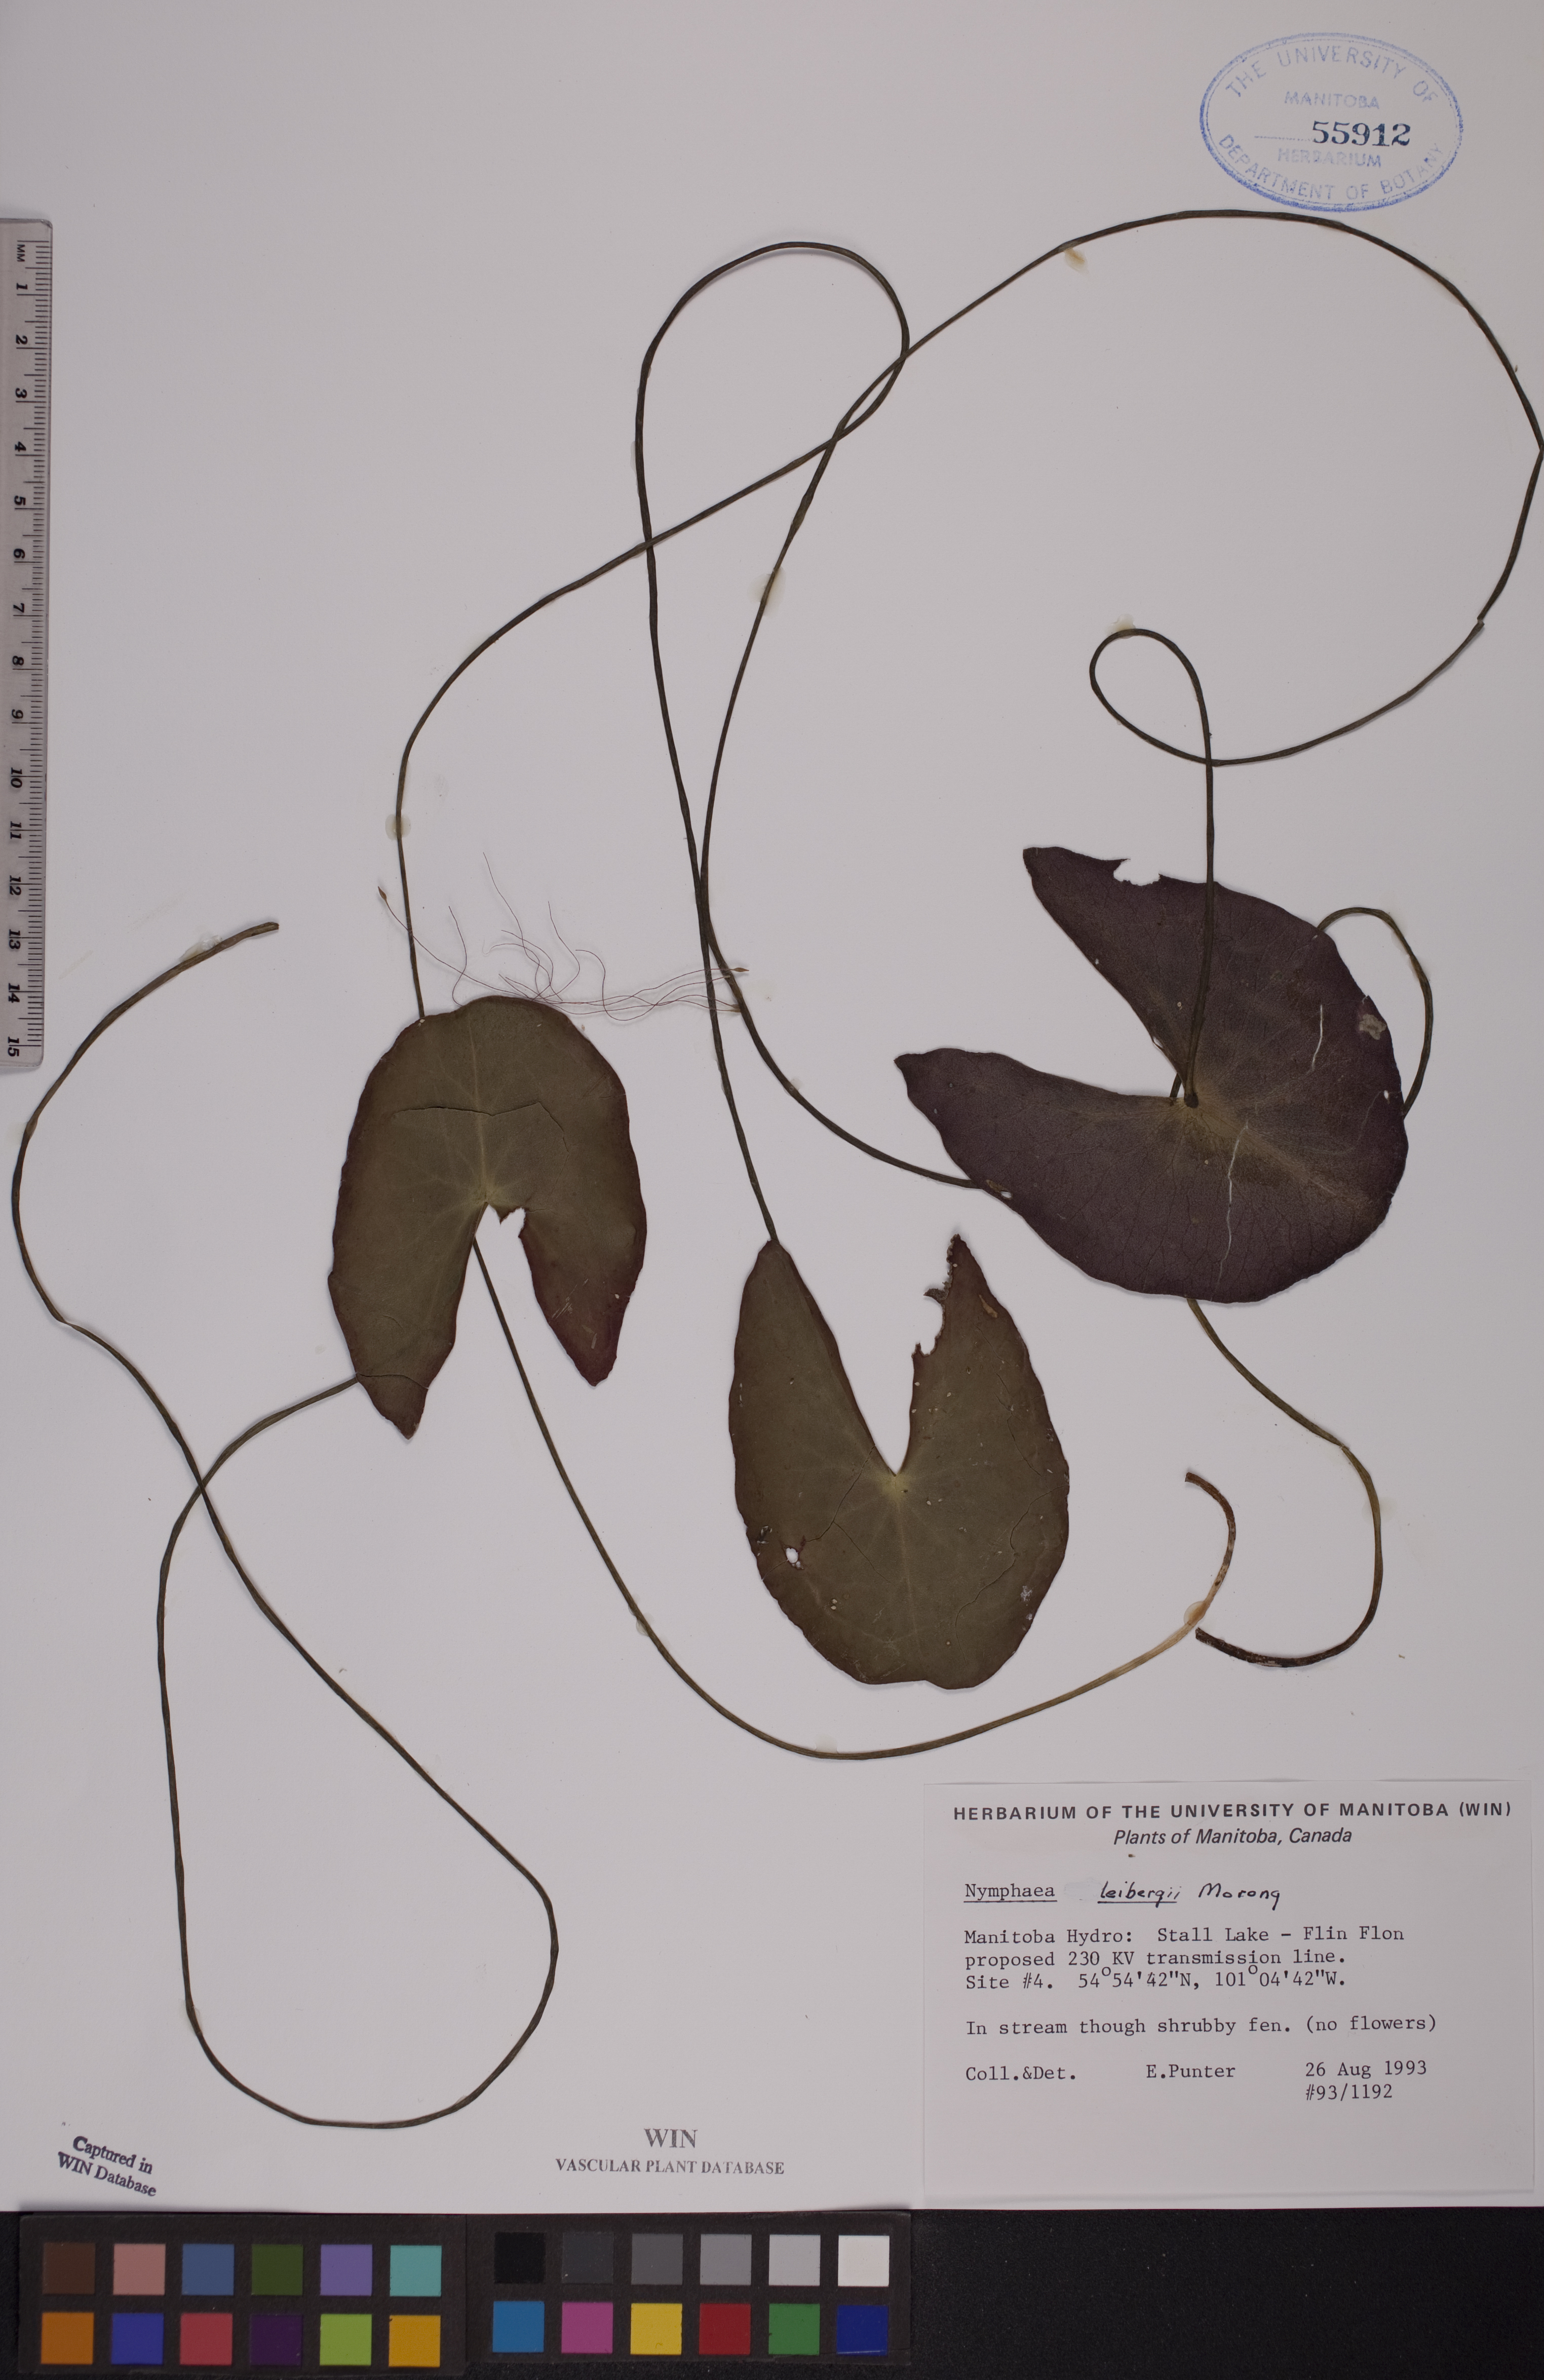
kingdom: Plantae
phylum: Tracheophyta
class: Magnoliopsida
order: Nymphaeales
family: Nymphaeaceae
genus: Nymphaea
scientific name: Nymphaea leibergii
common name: Dwarf water-lily
